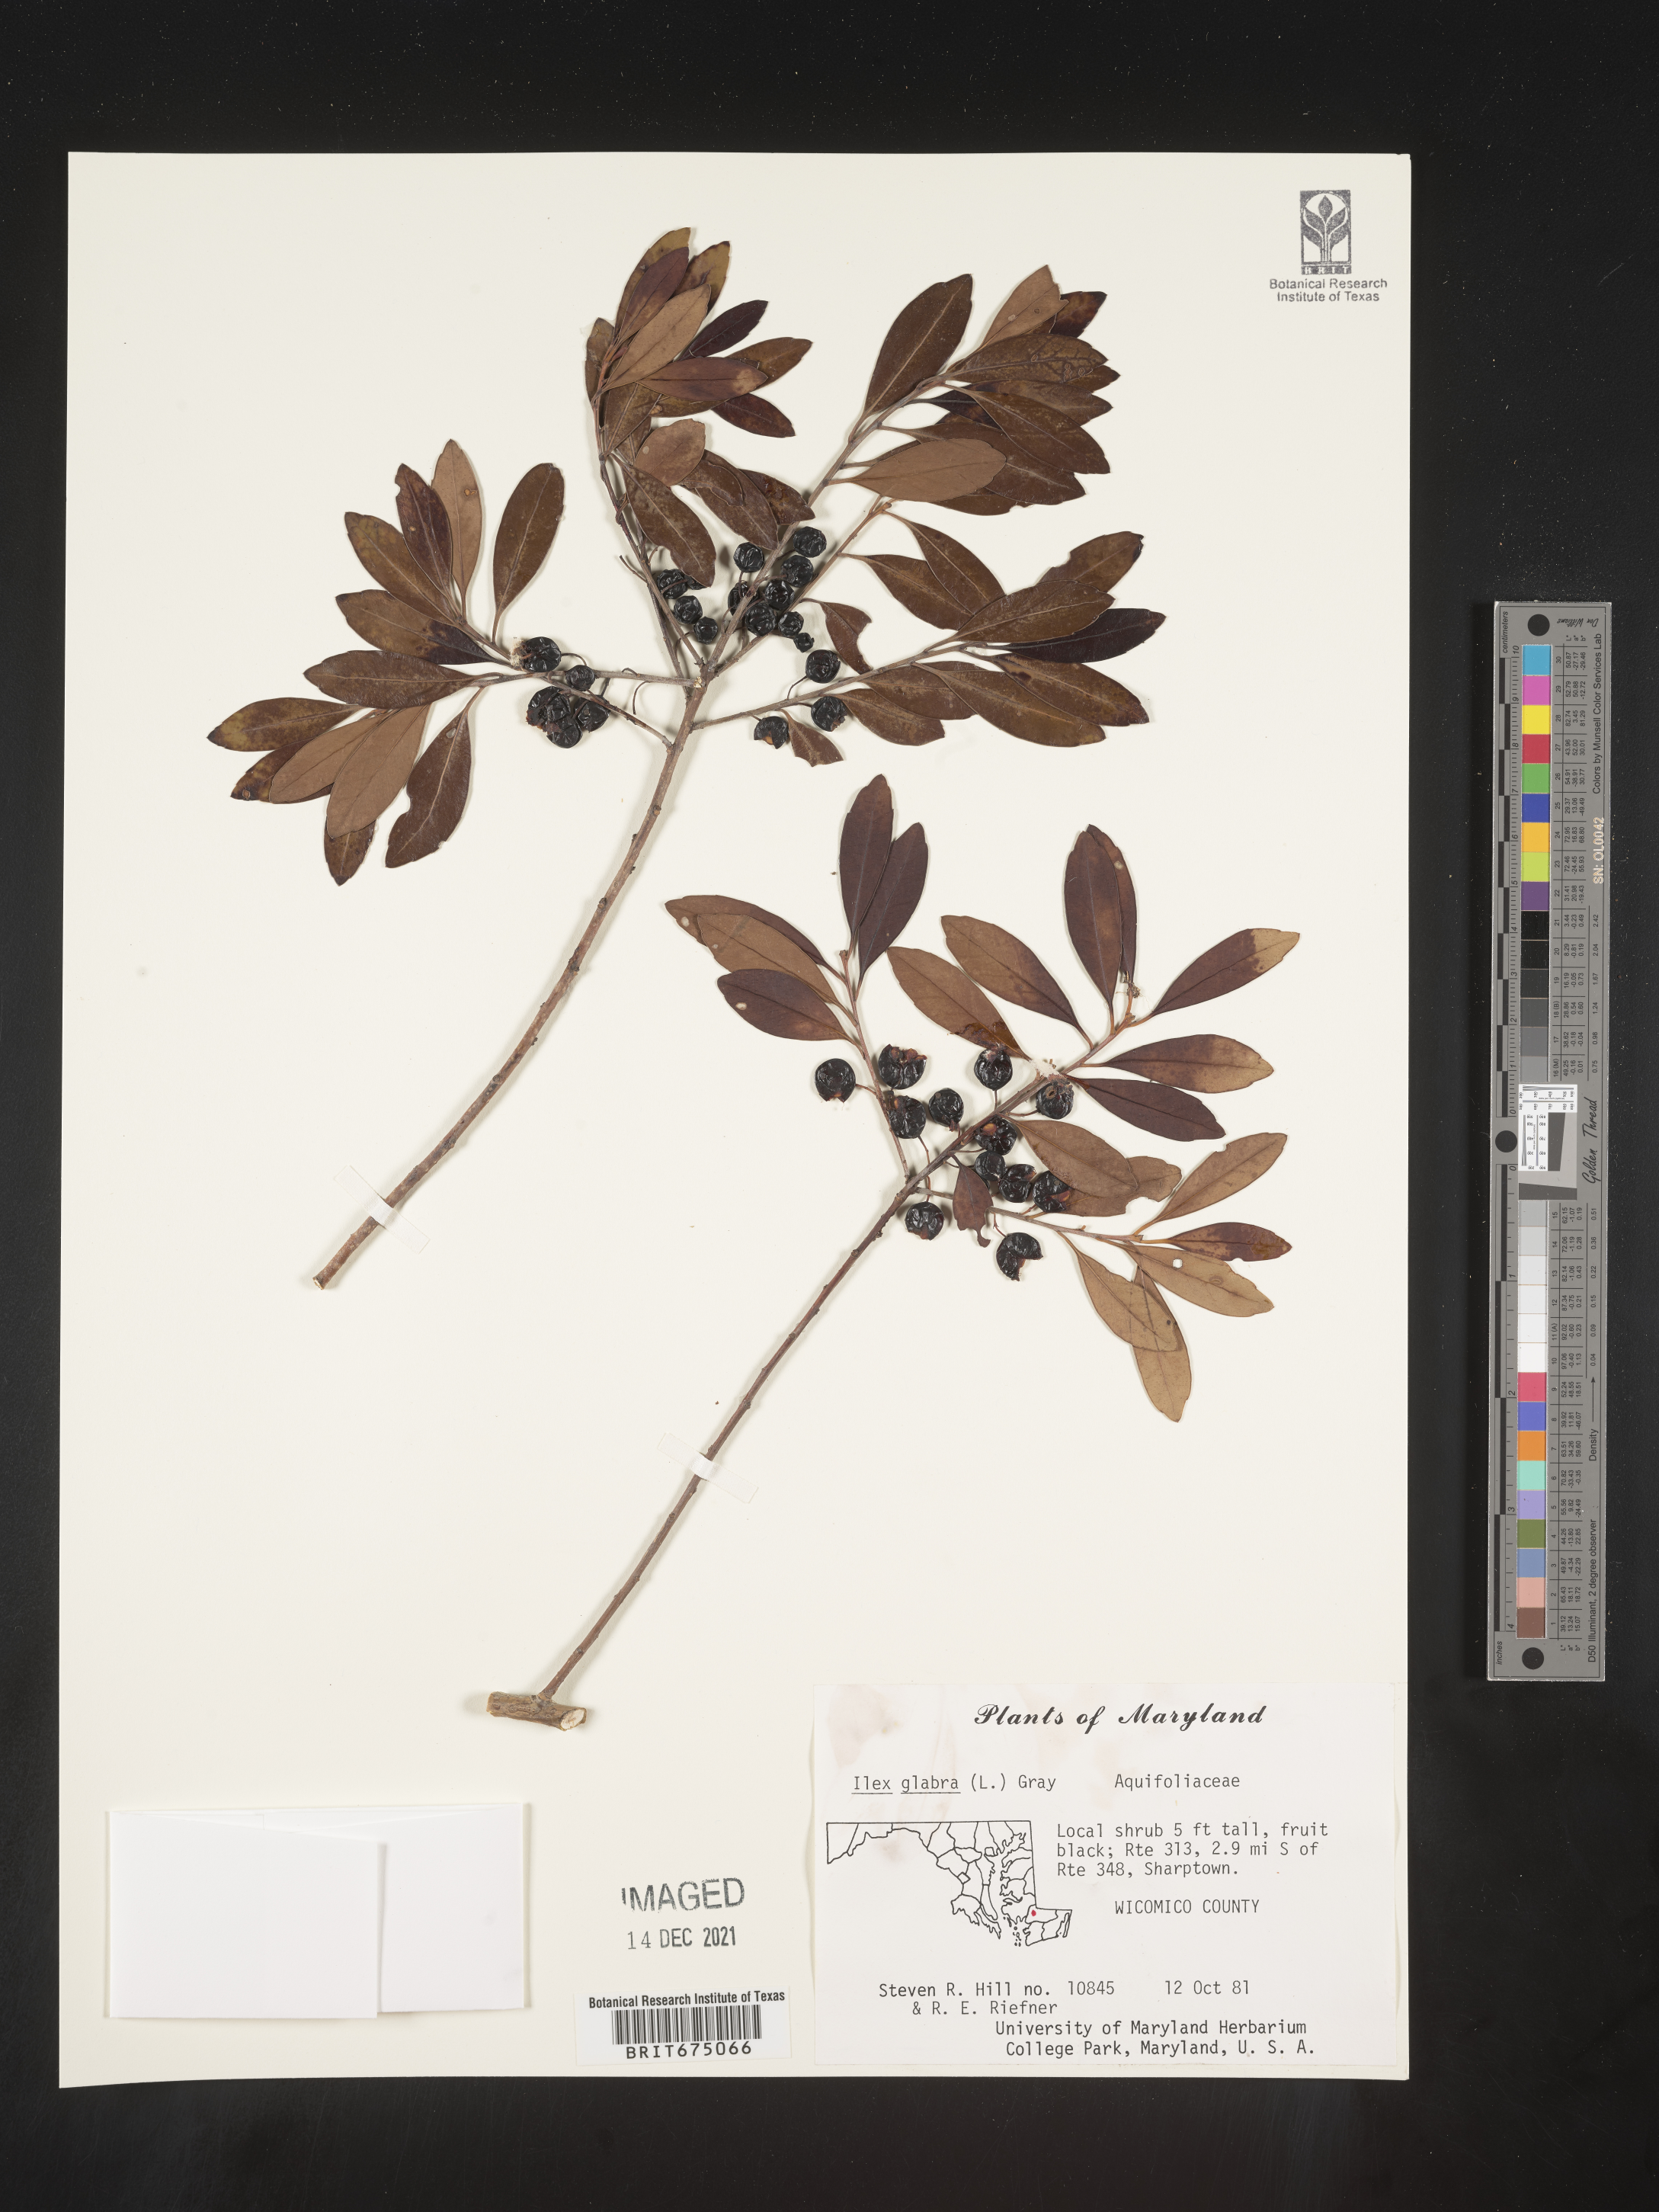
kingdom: Plantae
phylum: Tracheophyta
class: Magnoliopsida
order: Aquifoliales
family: Aquifoliaceae
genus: Ilex
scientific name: Ilex glabra
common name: Bitter gallberry
